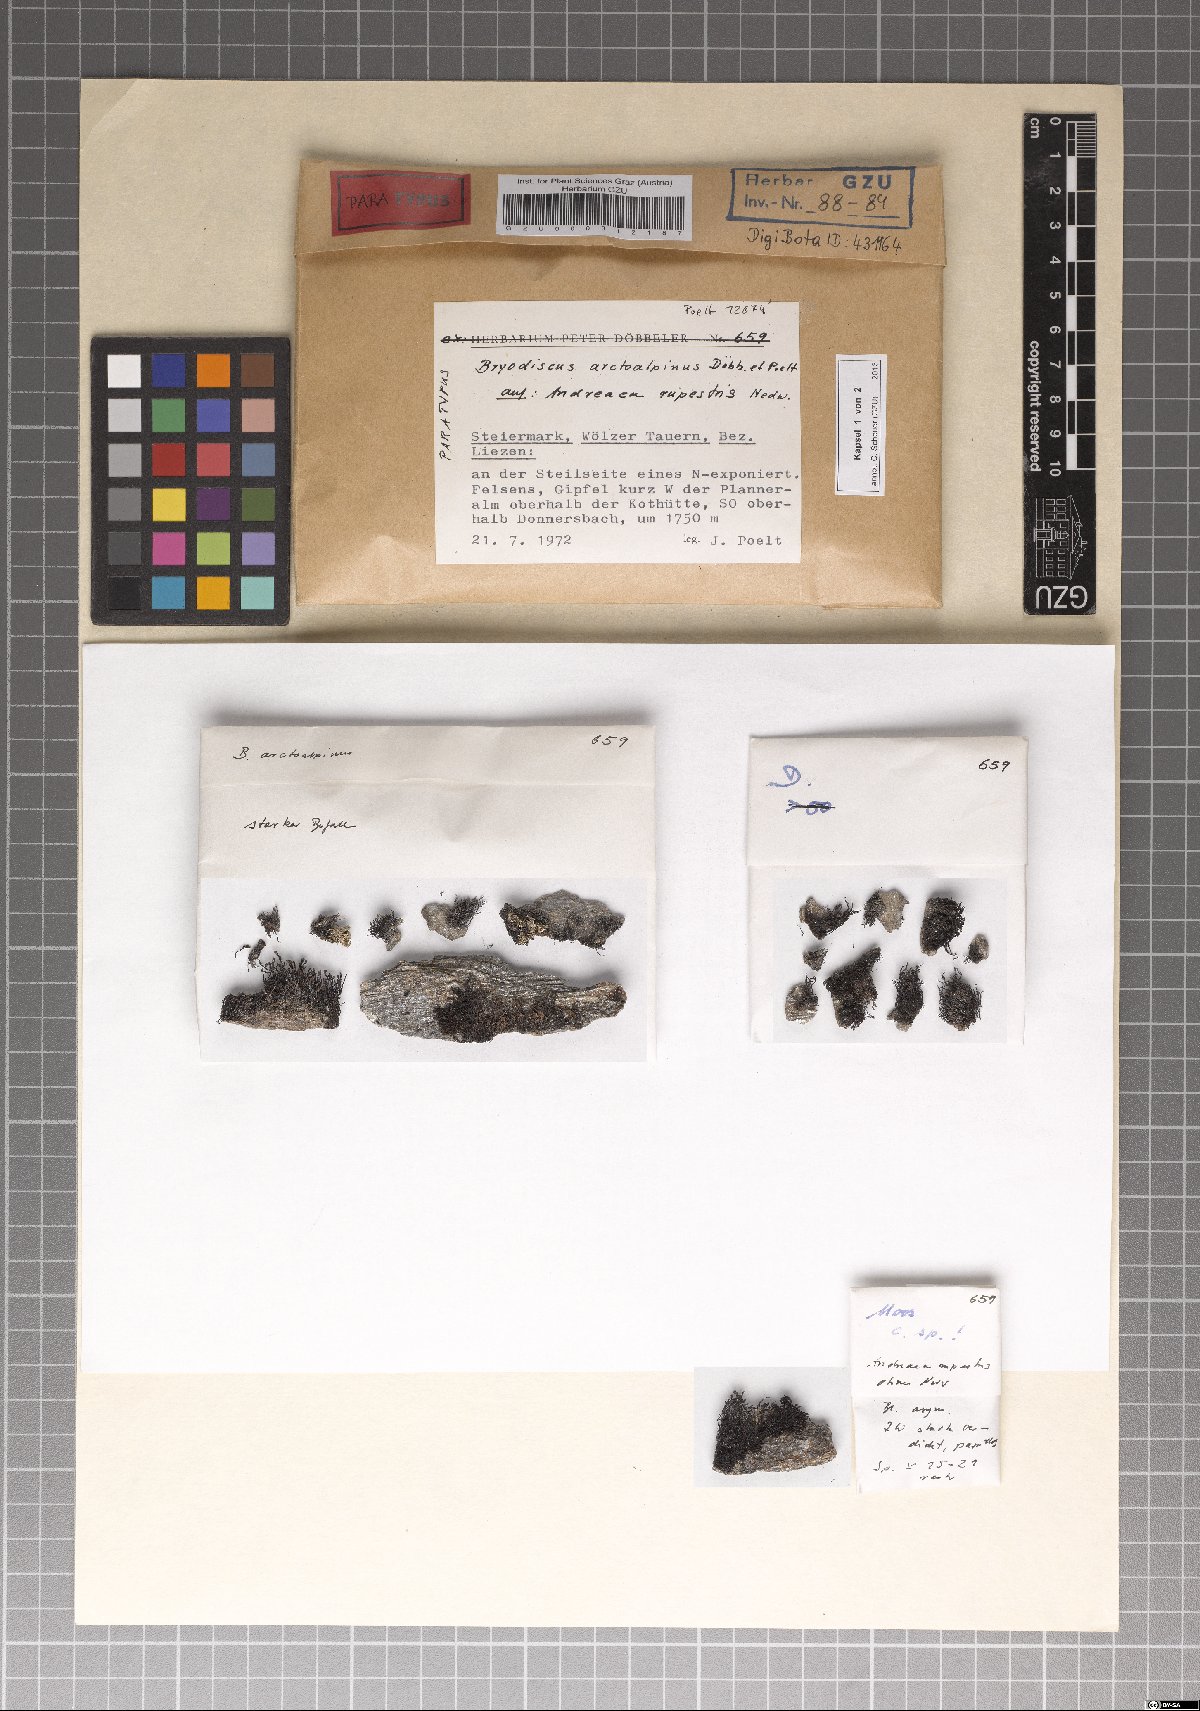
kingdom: Fungi
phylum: Ascomycota
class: Lecanoromycetes
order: Ostropales
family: Odontotremataceae
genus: Sphaeropezia
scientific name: Sphaeropezia arctoalpina
